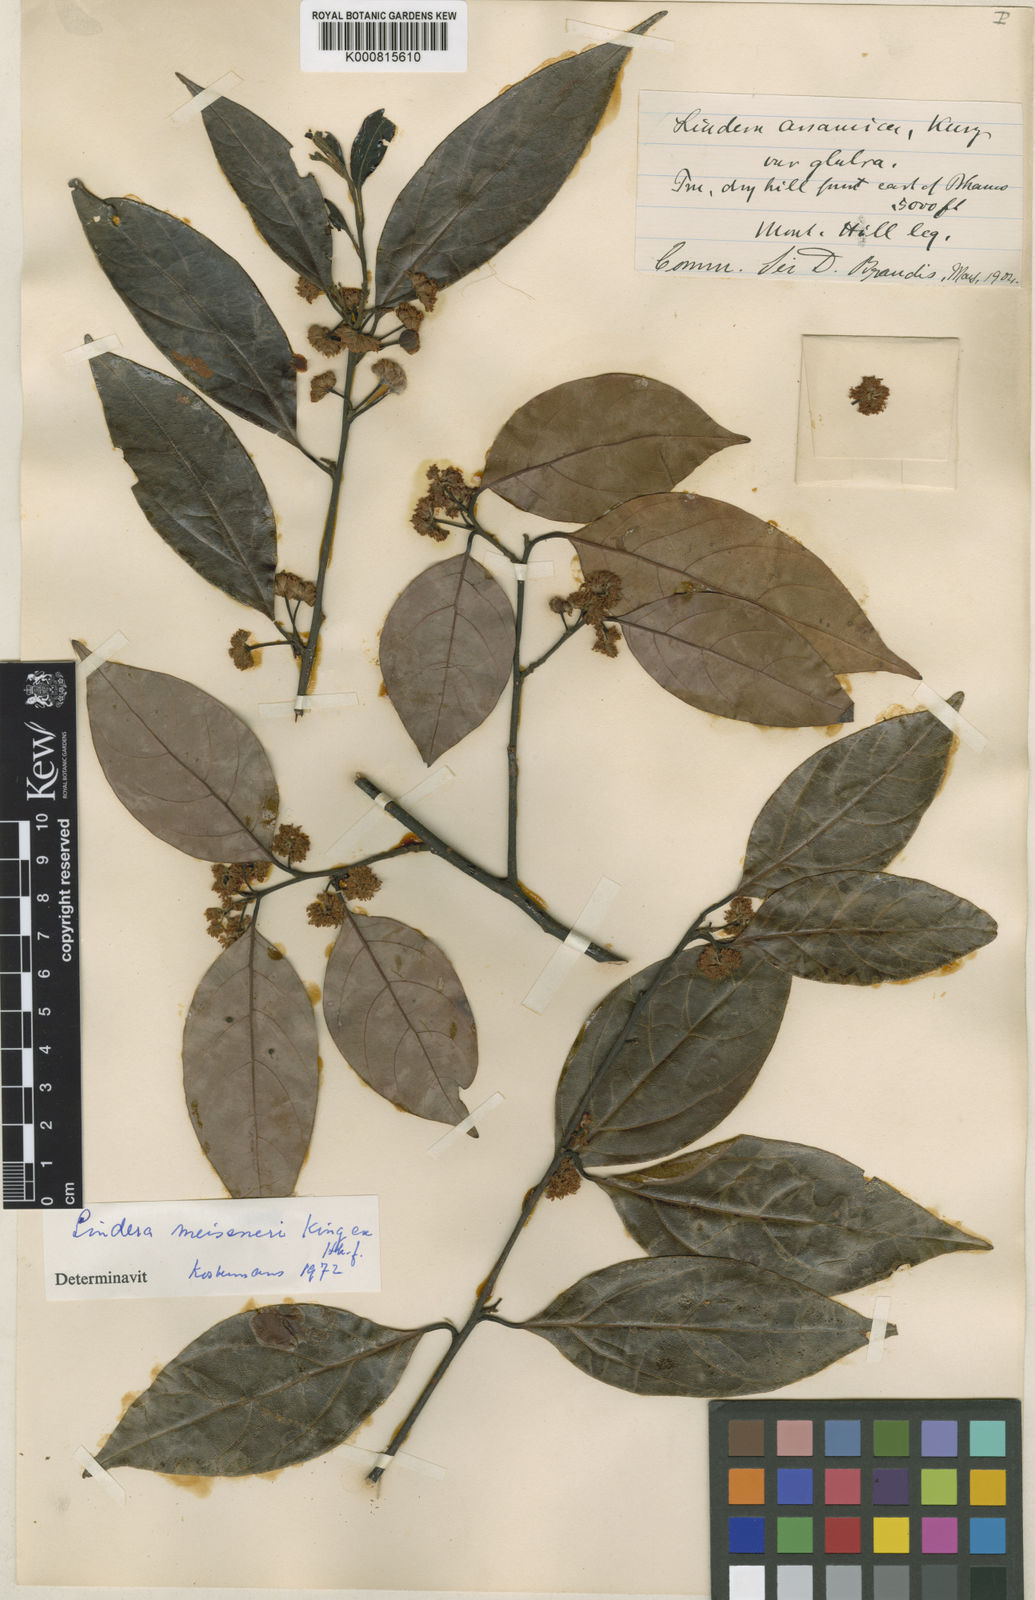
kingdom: Plantae
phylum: Tracheophyta
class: Magnoliopsida
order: Laurales
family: Lauraceae
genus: Lindera
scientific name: Lindera meissneri
